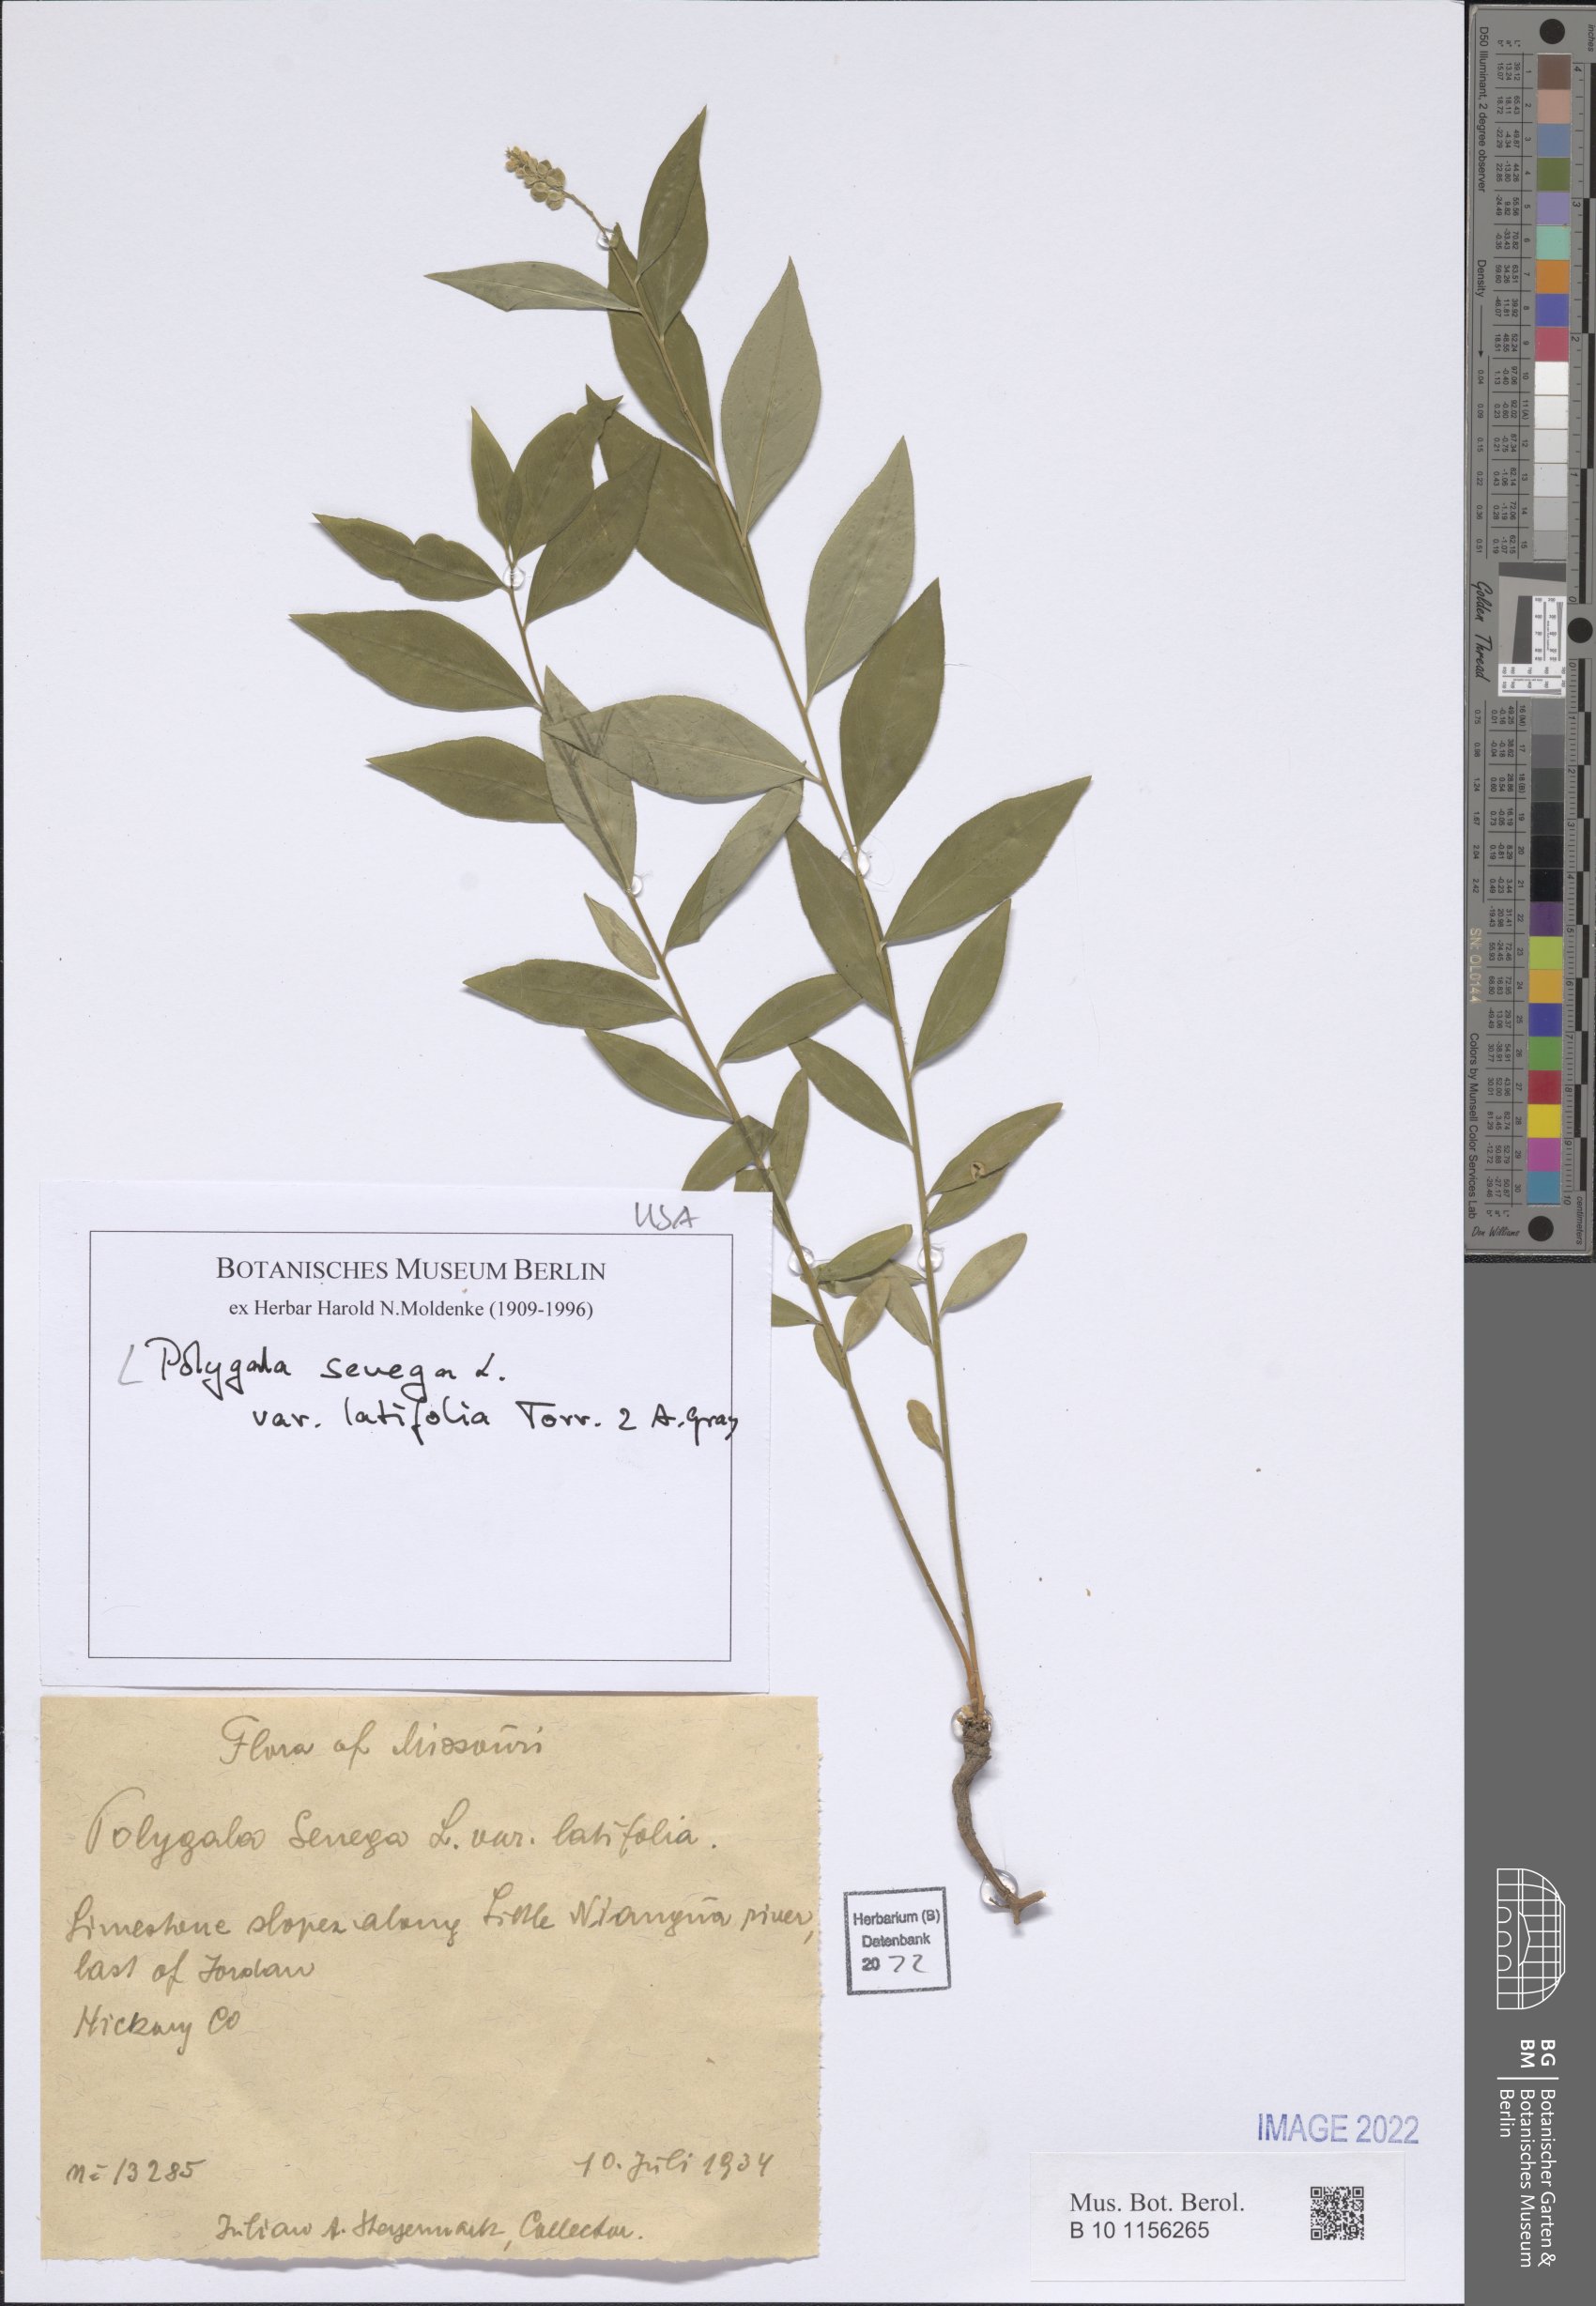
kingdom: Plantae
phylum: Tracheophyta
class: Magnoliopsida
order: Fabales
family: Polygalaceae
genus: Polygala
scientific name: Polygala senega
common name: Seneca snakeroot
